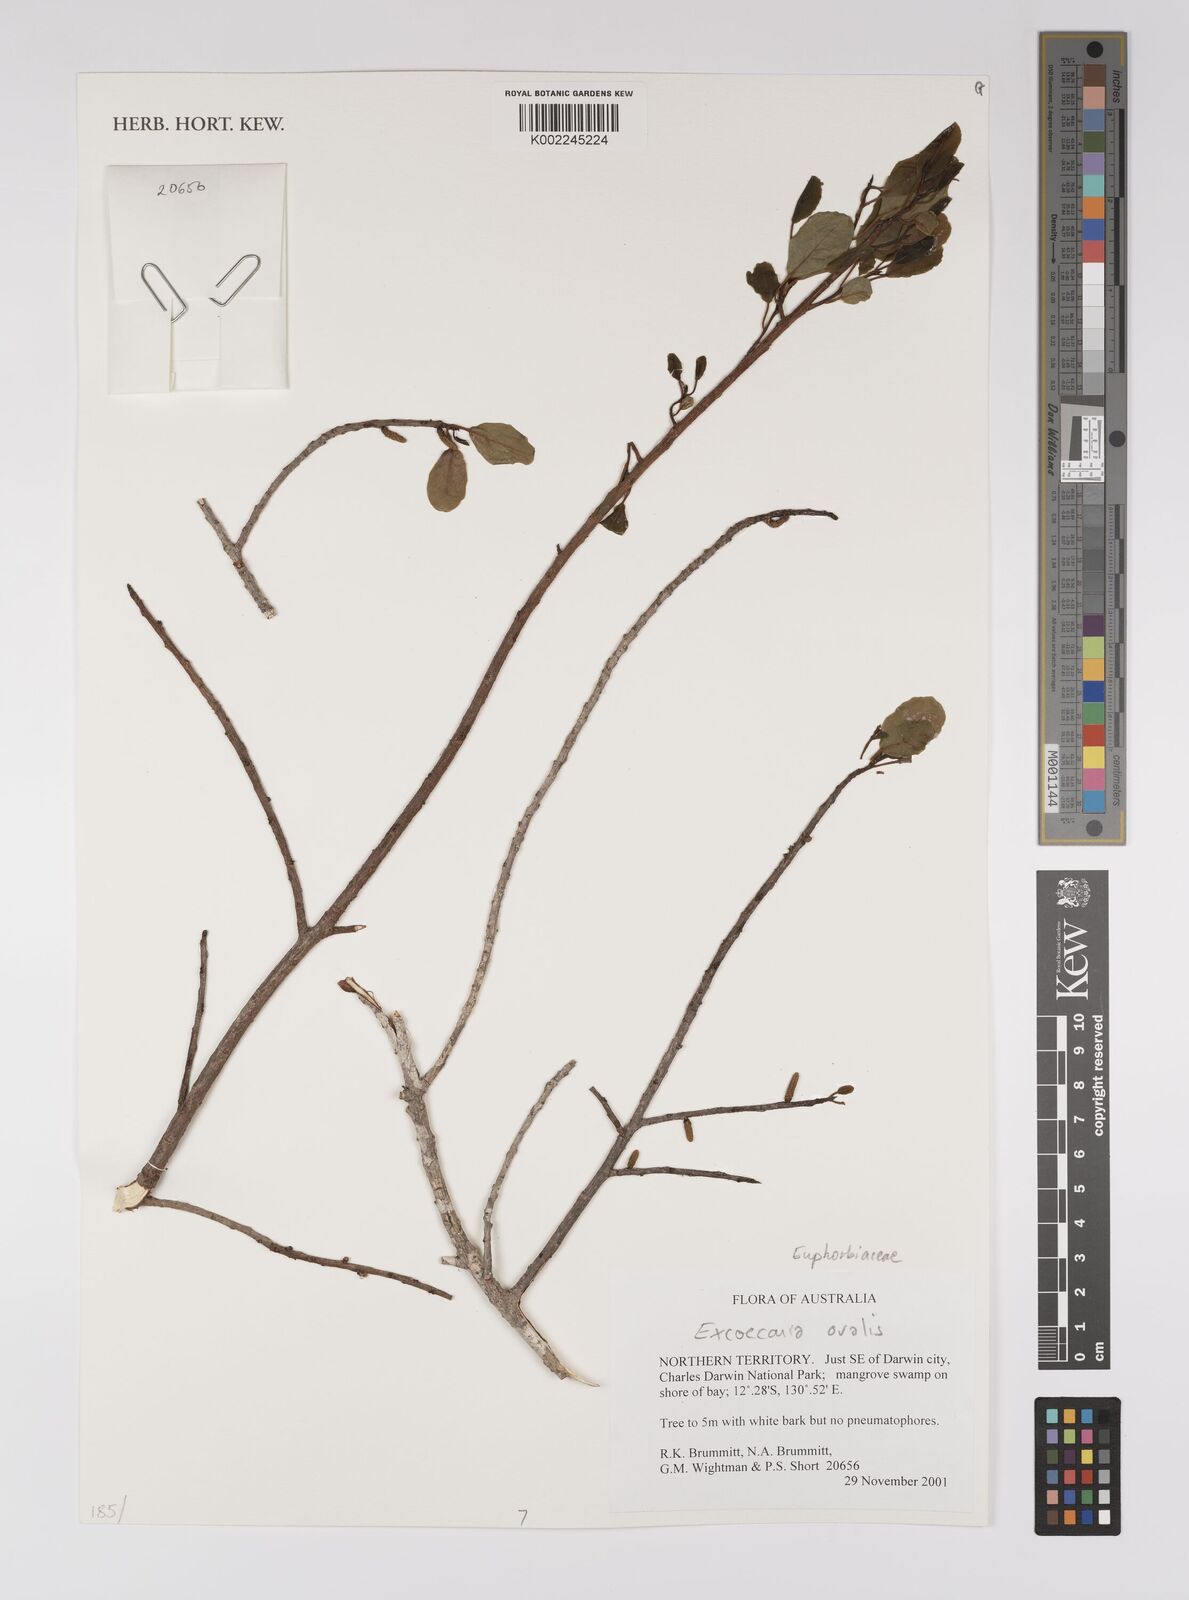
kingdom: Plantae
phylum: Tracheophyta
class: Magnoliopsida
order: Malpighiales
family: Euphorbiaceae
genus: Excoecaria
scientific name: Excoecaria agallocha
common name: River poisontree
